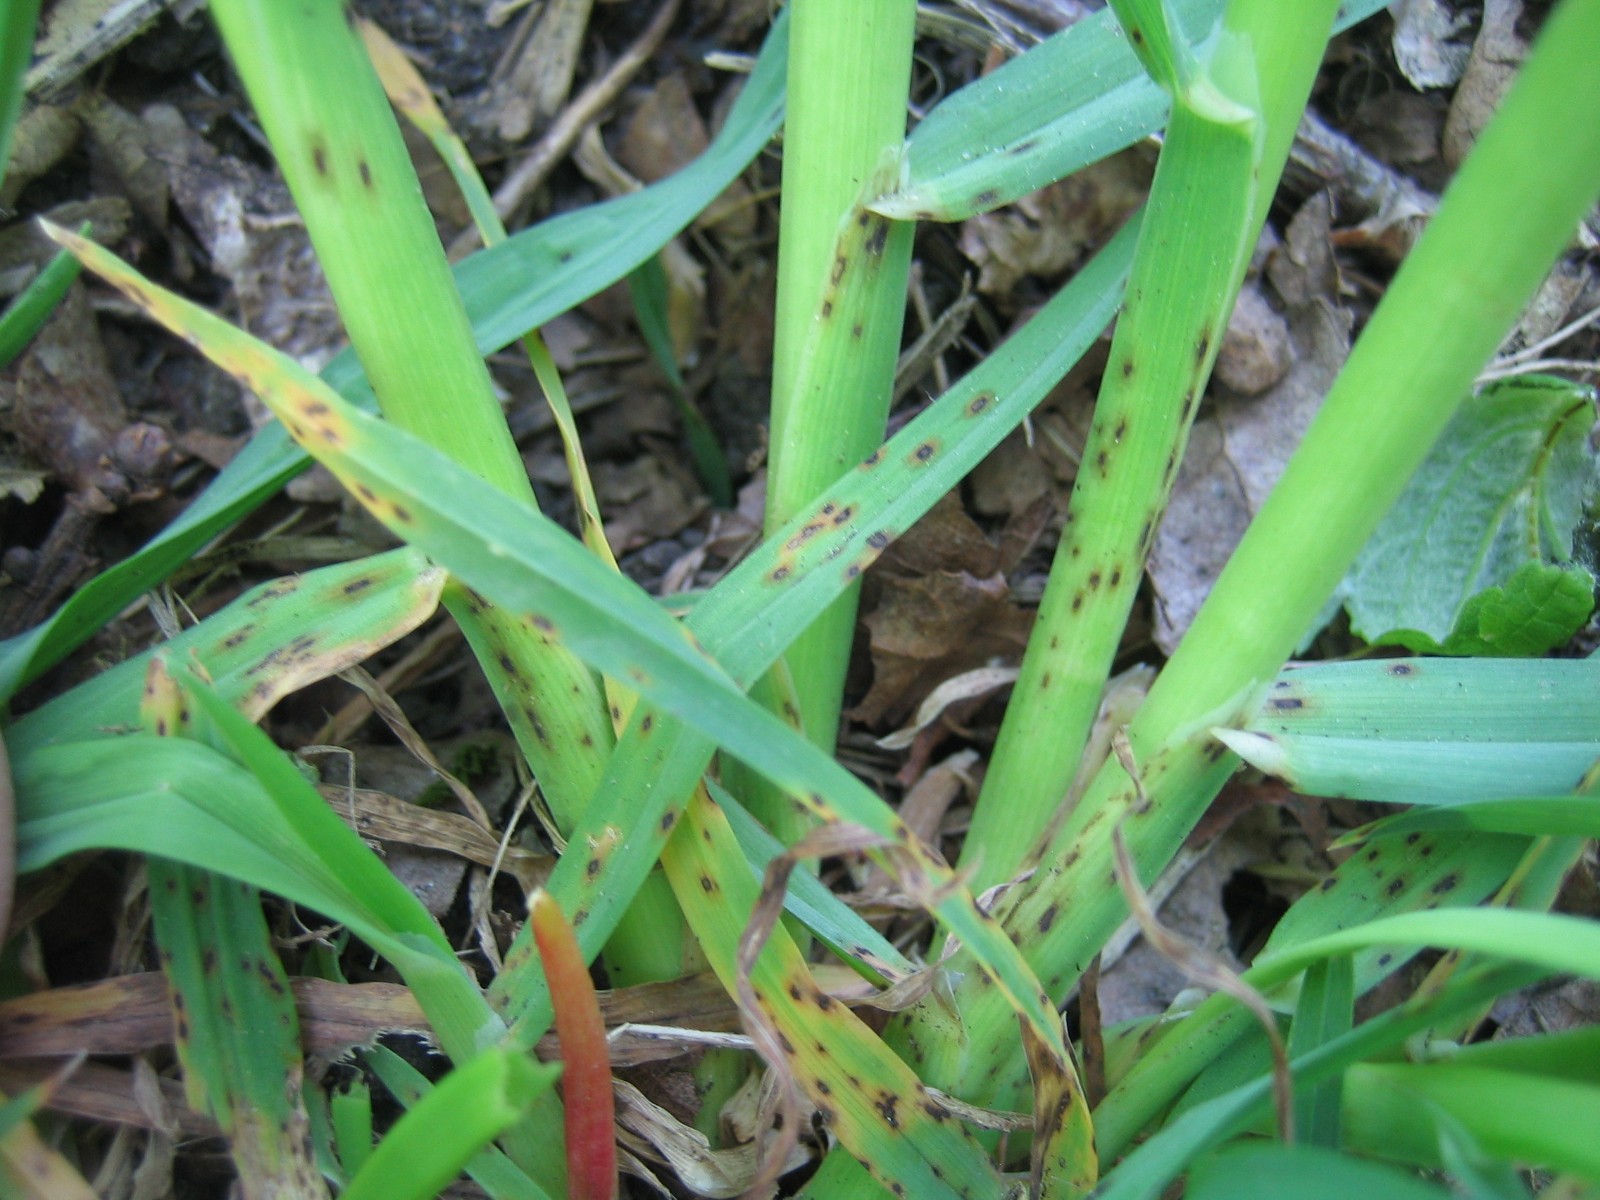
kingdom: Fungi
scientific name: Fungi
